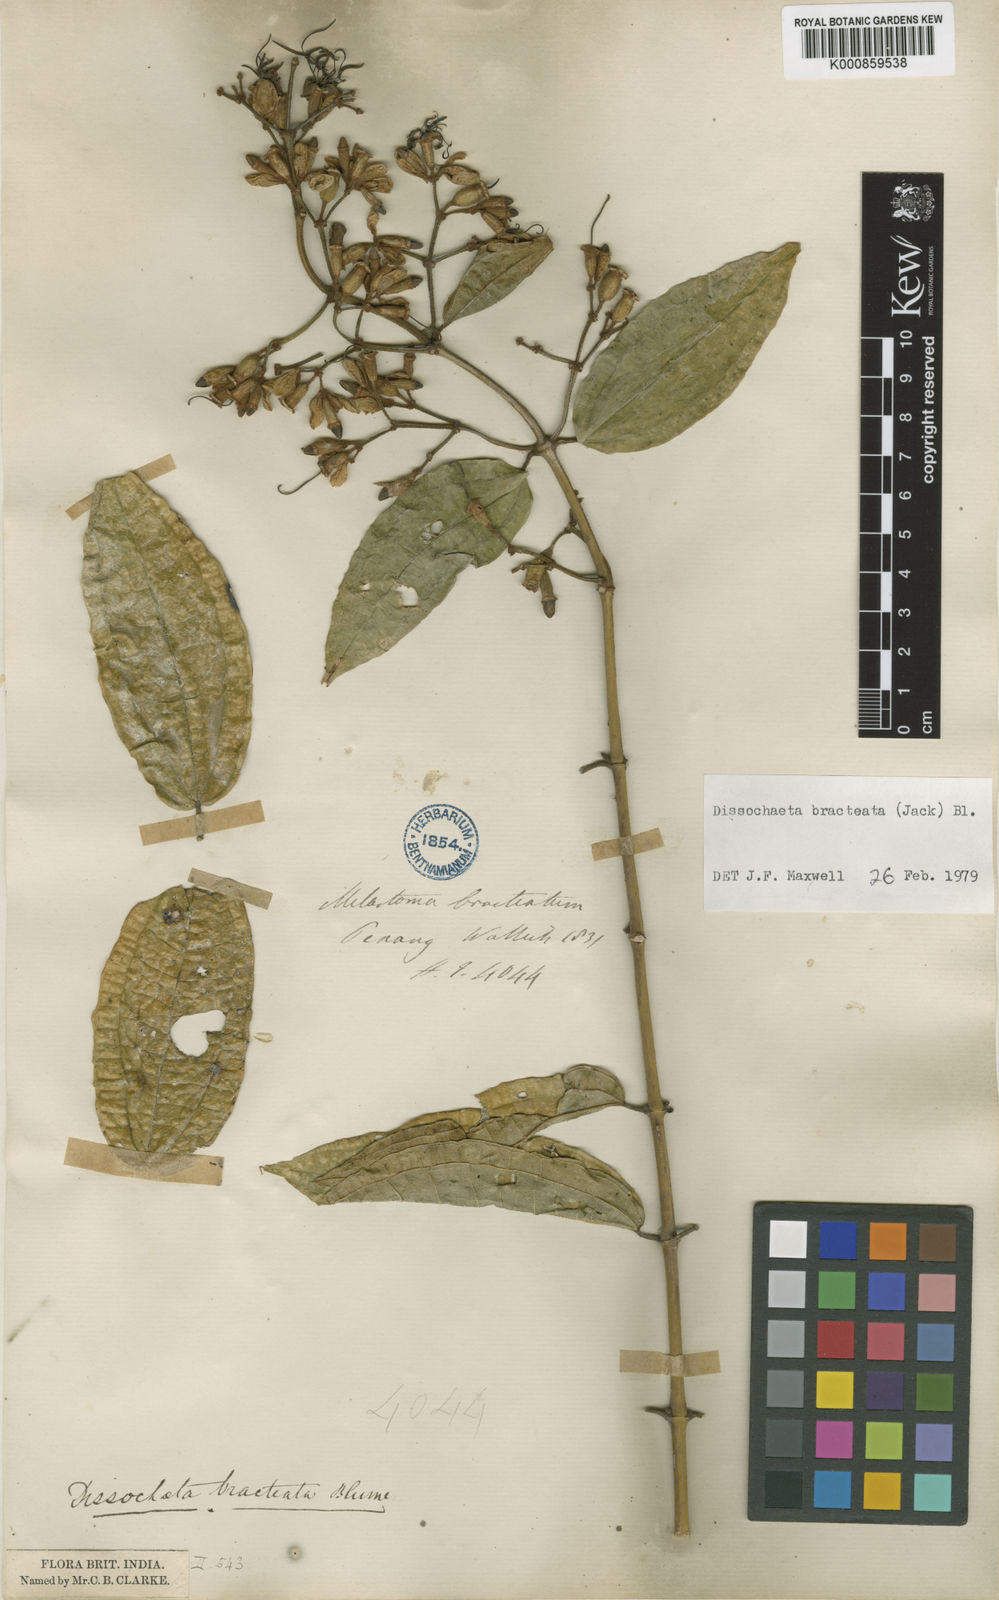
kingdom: Plantae
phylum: Tracheophyta
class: Magnoliopsida
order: Myrtales
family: Melastomataceae
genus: Dissochaeta
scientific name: Dissochaeta bracteata
